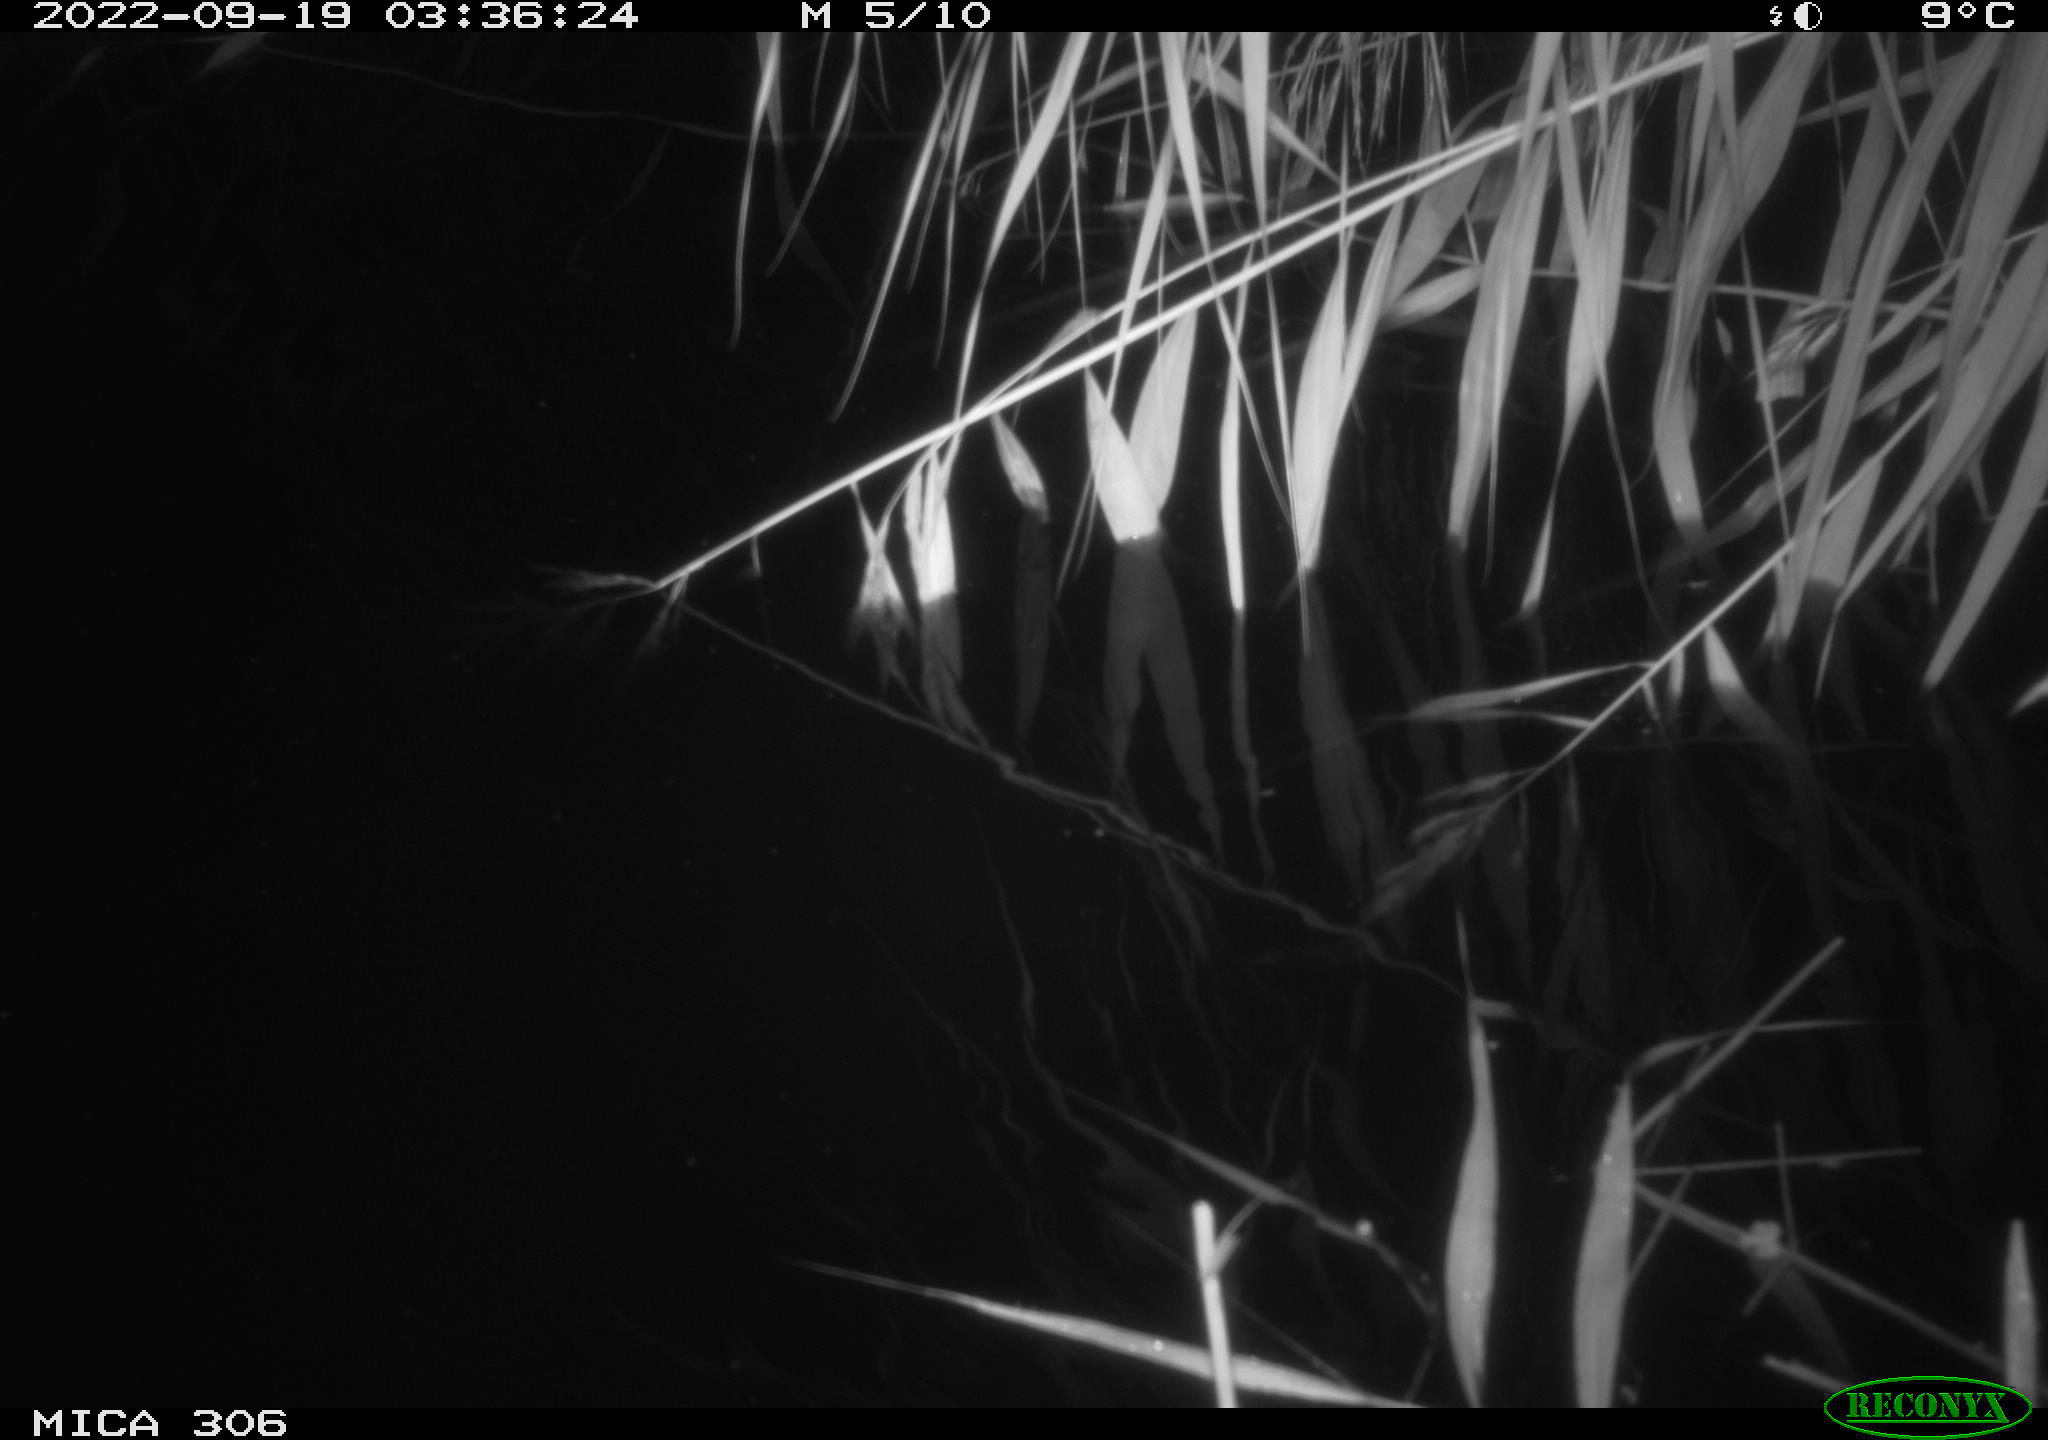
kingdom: Animalia
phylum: Chordata
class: Mammalia
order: Rodentia
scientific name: Rodentia
